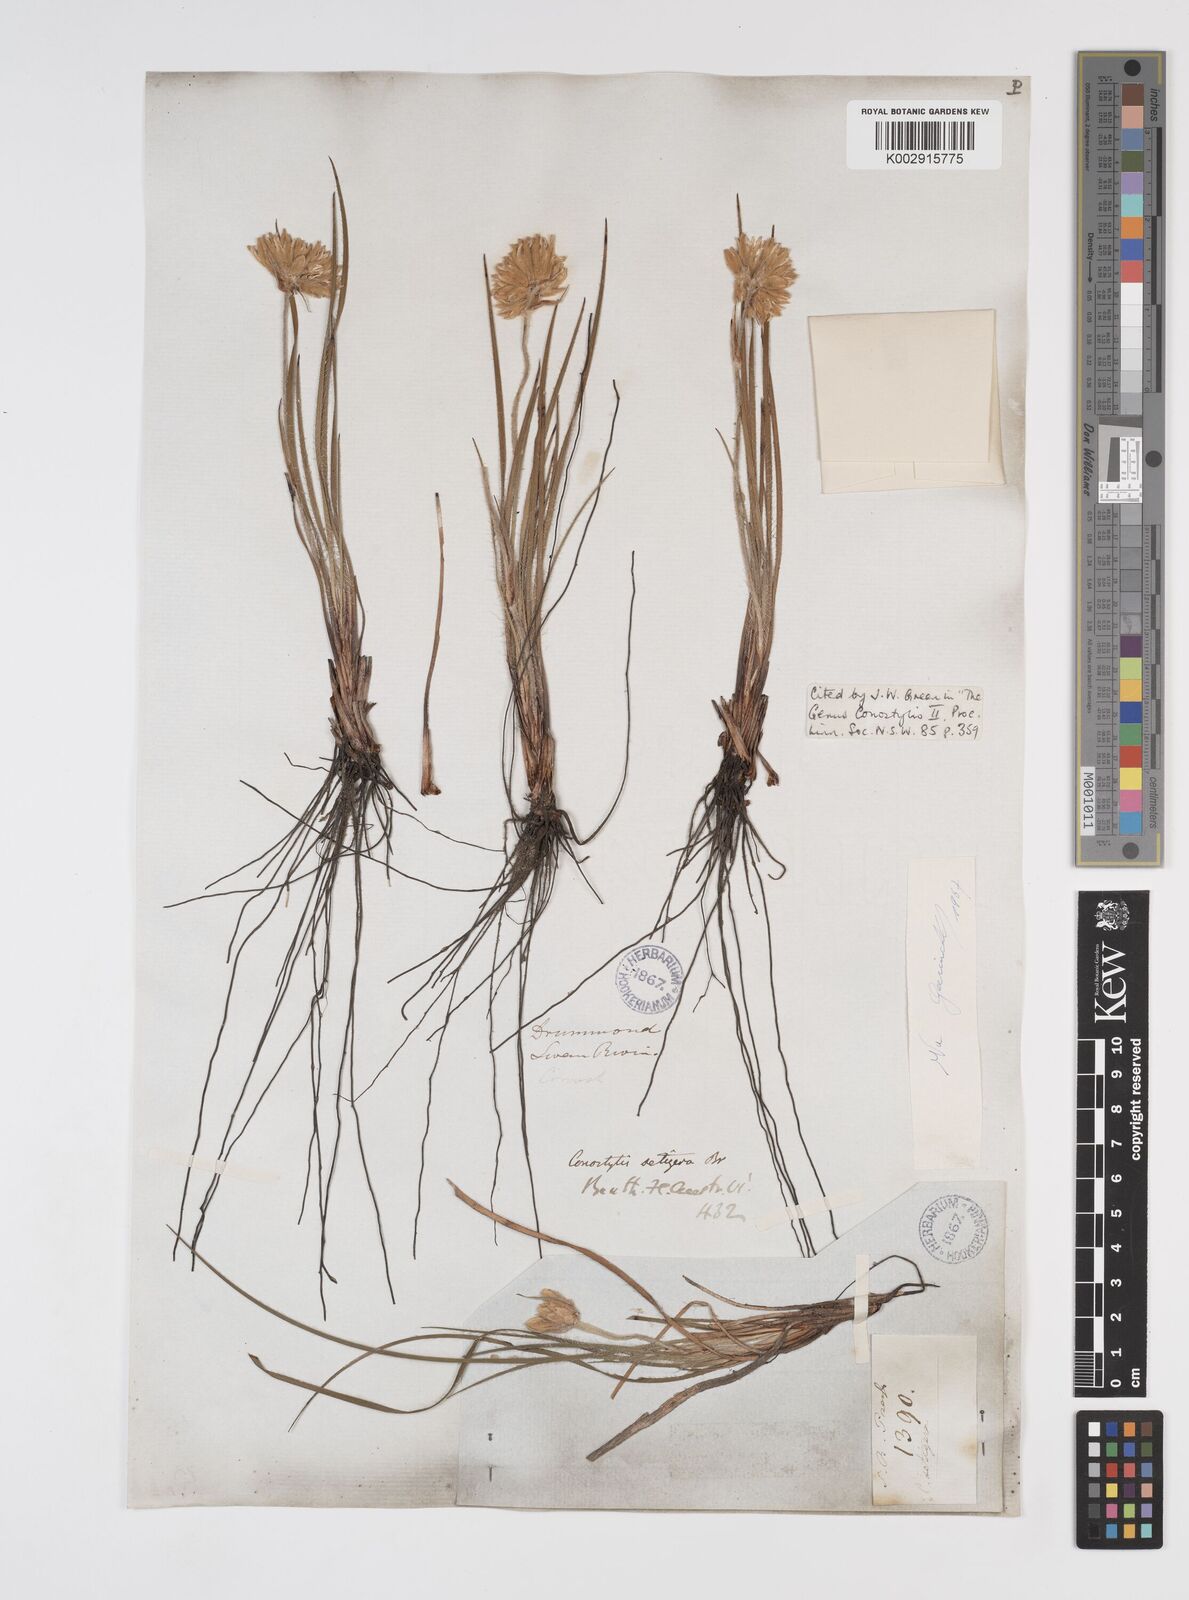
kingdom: Plantae
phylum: Tracheophyta
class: Liliopsida
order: Commelinales
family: Haemodoraceae
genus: Conostylis
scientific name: Conostylis setigera
